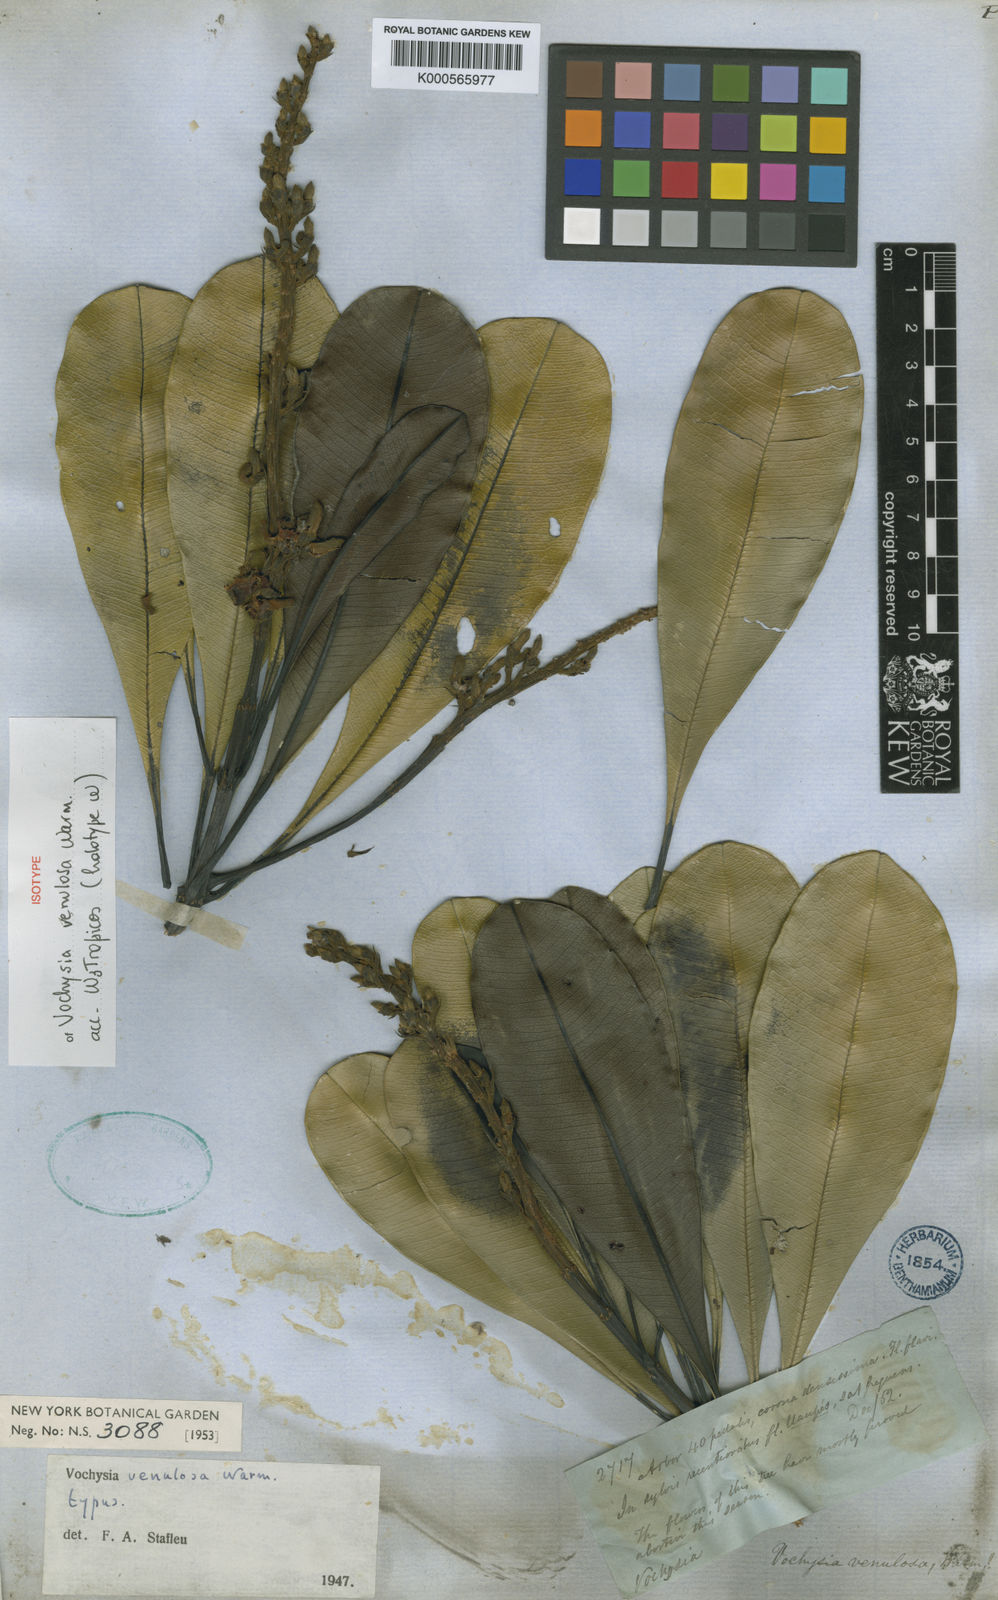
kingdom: Plantae
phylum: Tracheophyta
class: Magnoliopsida
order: Myrtales
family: Vochysiaceae
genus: Vochysia
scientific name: Vochysia venulosa
